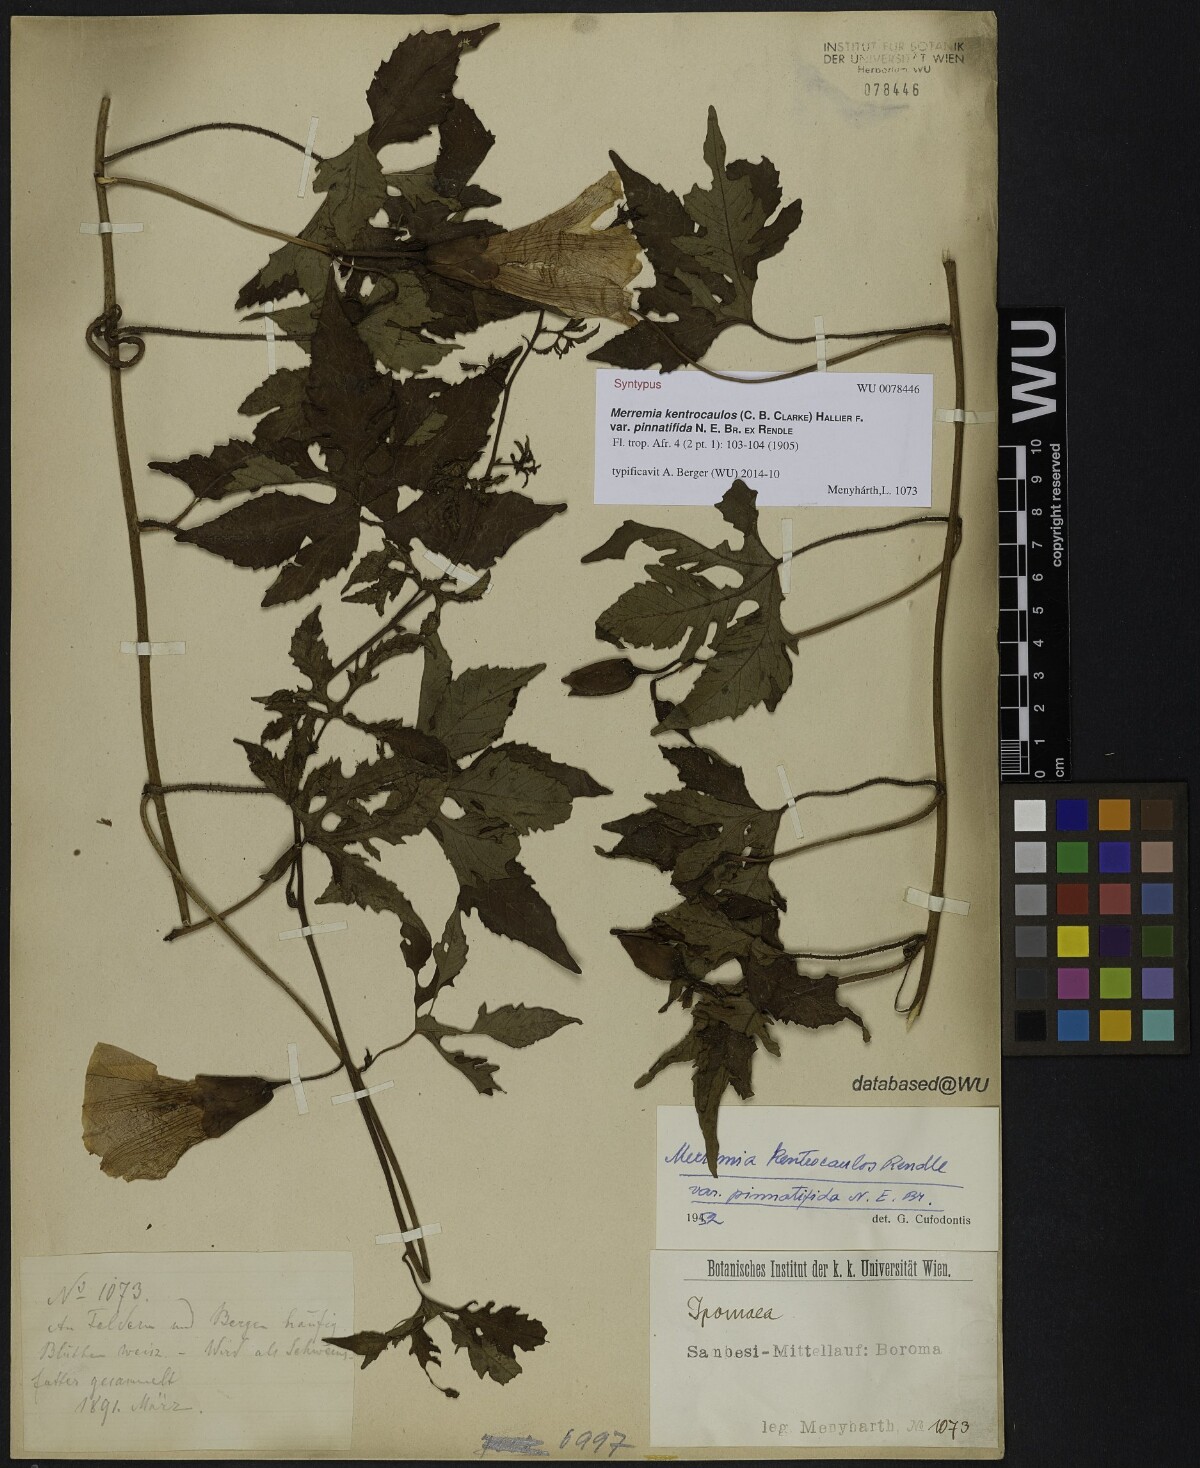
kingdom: Plantae
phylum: Tracheophyta
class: Magnoliopsida
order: Solanales
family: Convolvulaceae
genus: Distimake
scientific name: Distimake kentrocaulos
